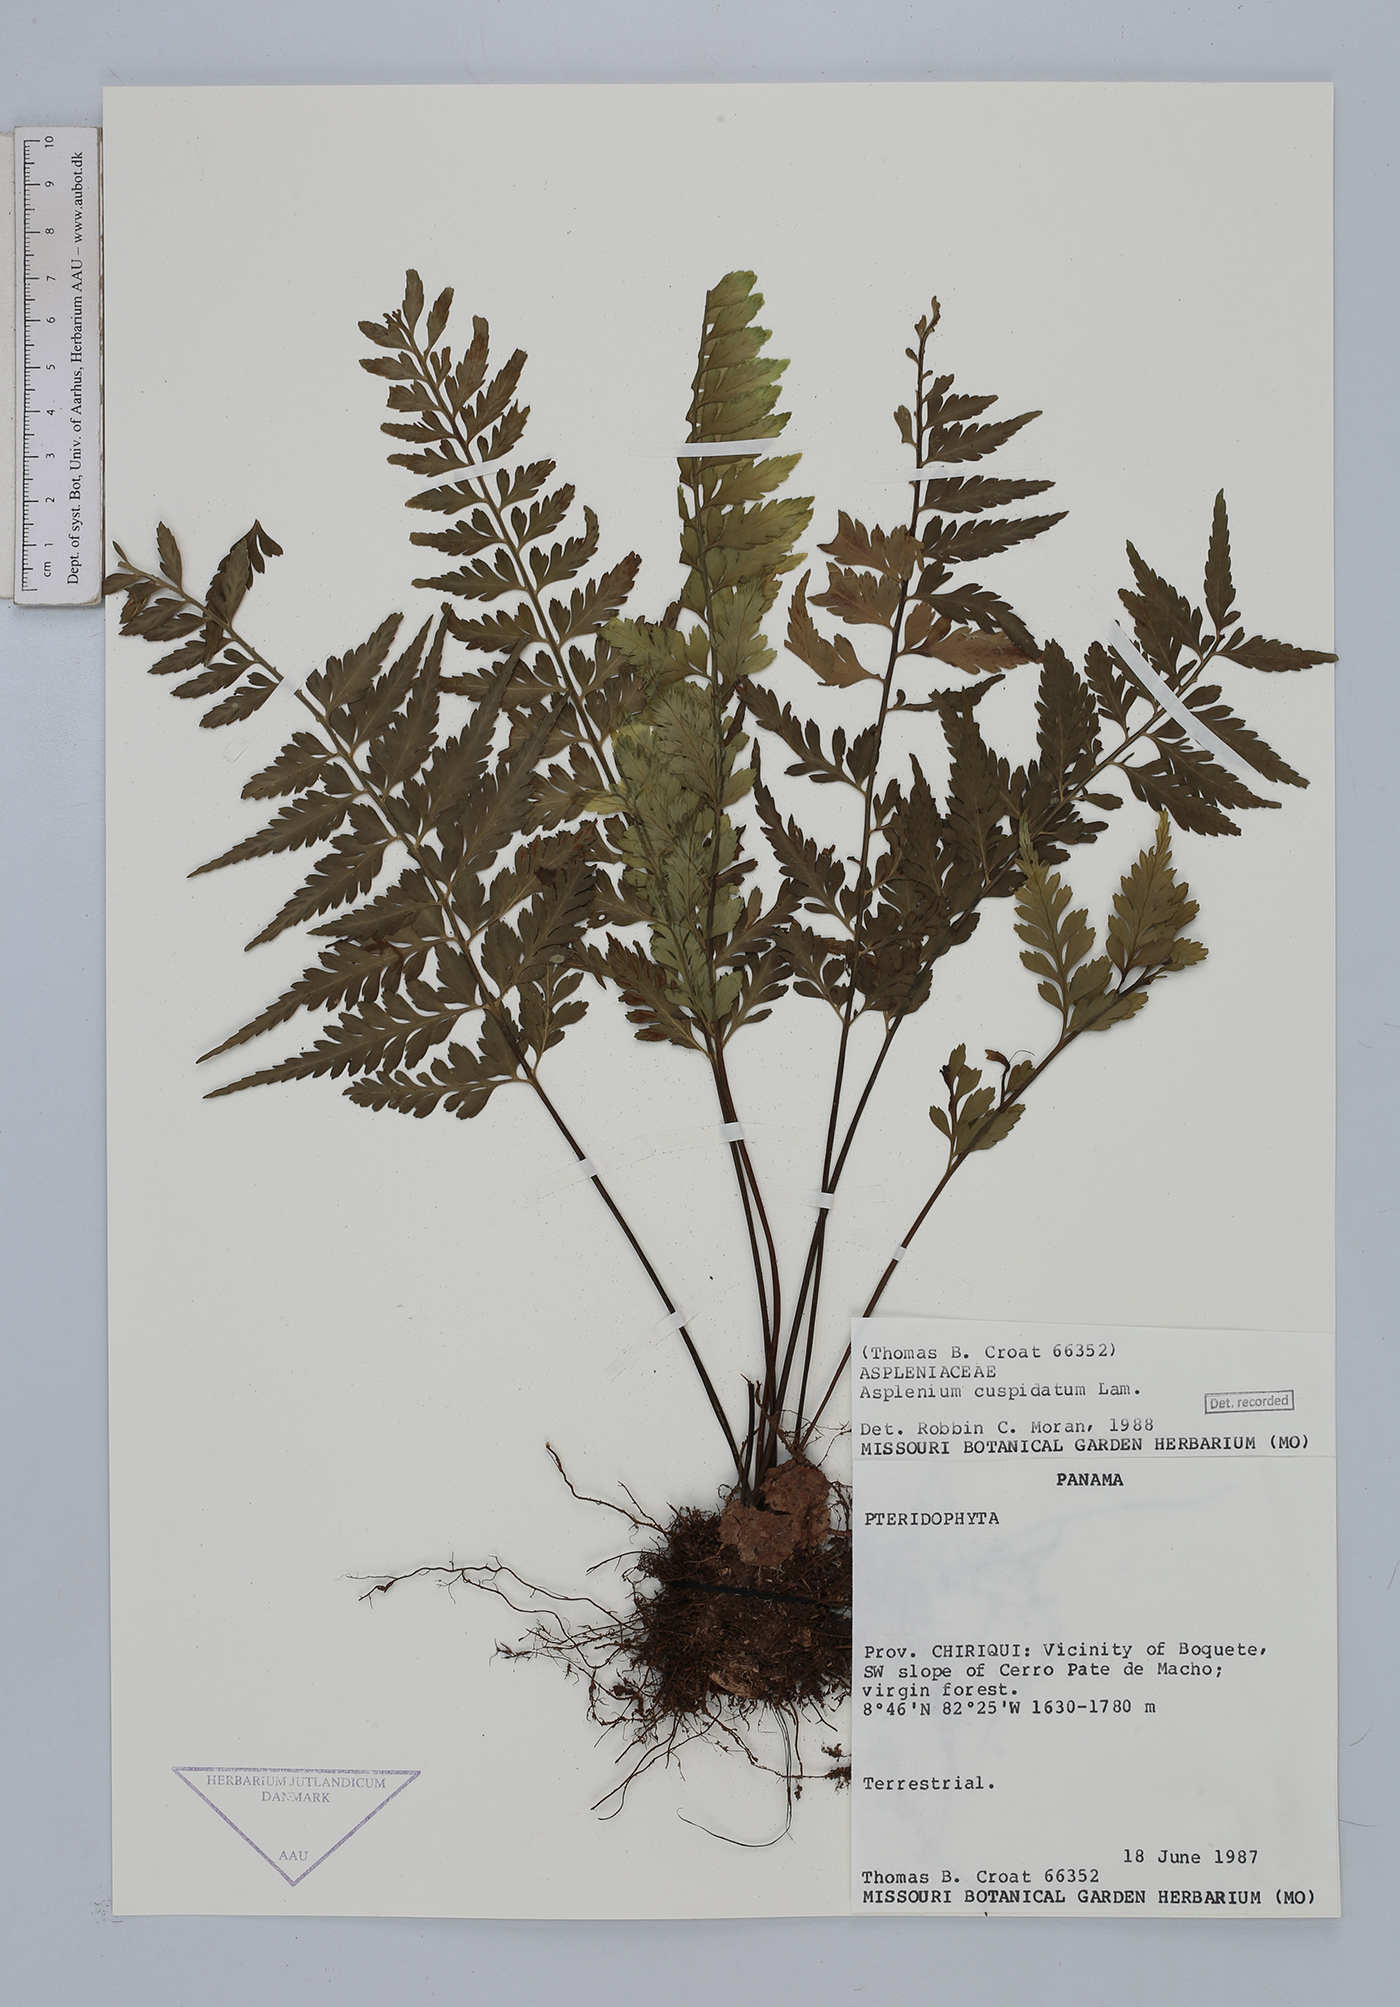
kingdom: Plantae
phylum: Tracheophyta
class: Polypodiopsida
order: Polypodiales
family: Aspleniaceae
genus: Asplenium
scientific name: Asplenium cuspidatum
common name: Eared spleenwort
